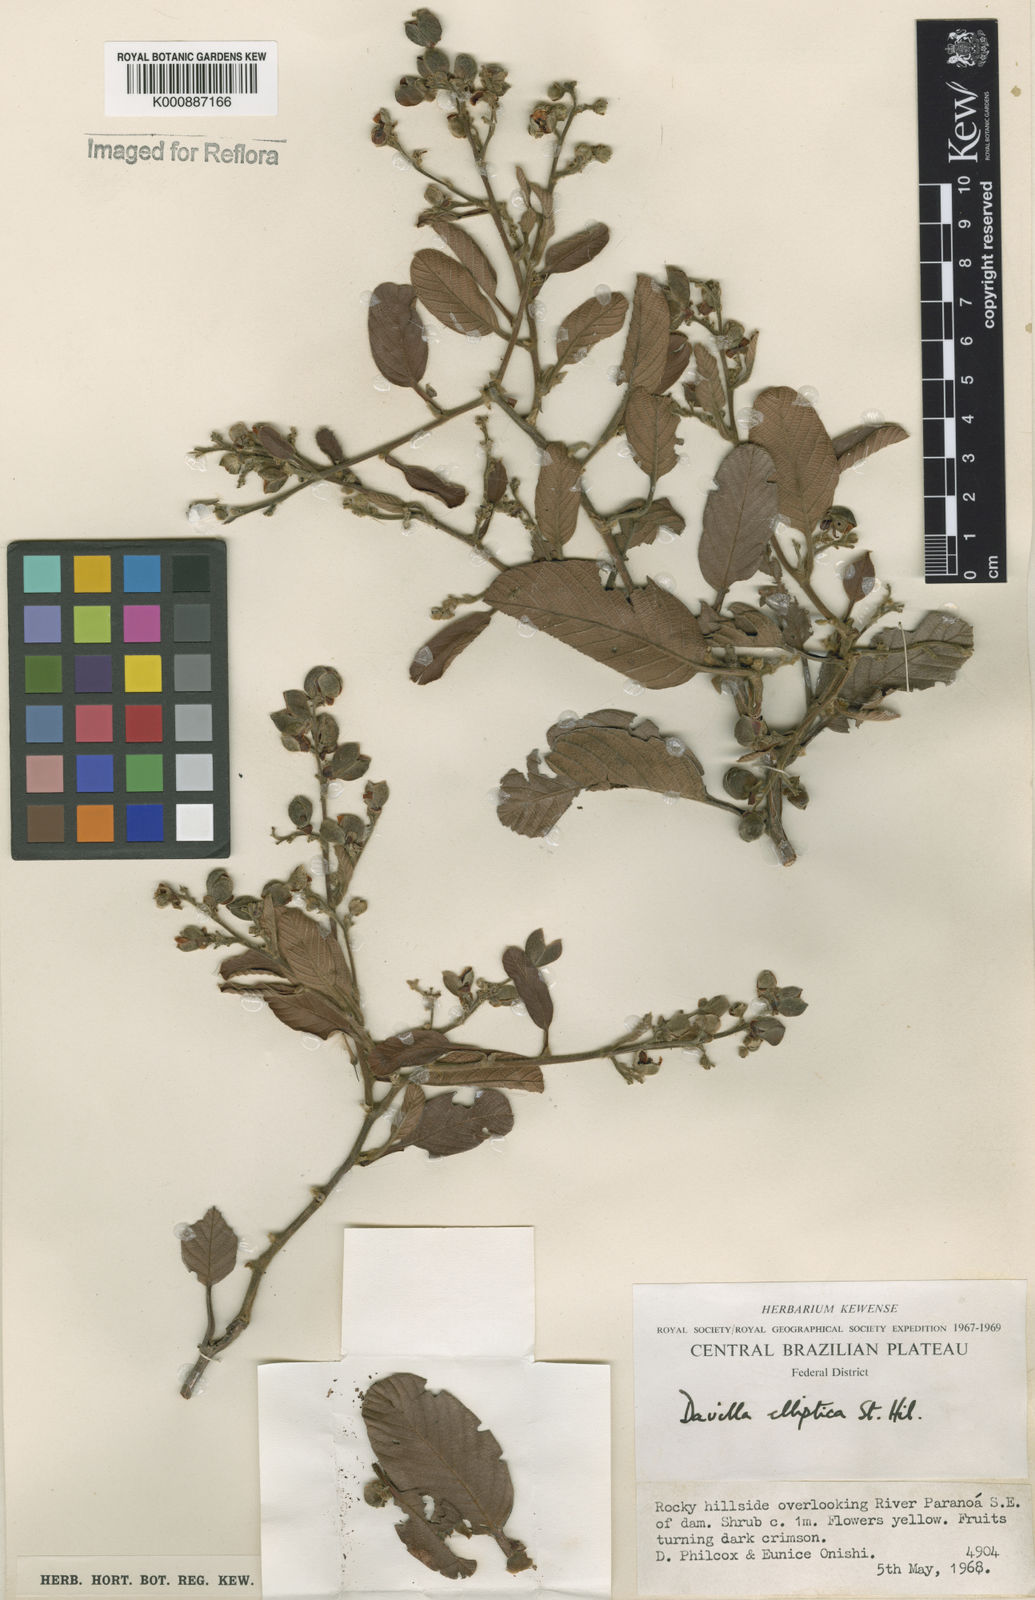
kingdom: Plantae
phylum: Tracheophyta
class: Magnoliopsida
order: Dilleniales
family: Dilleniaceae
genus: Davilla
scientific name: Davilla elliptica
